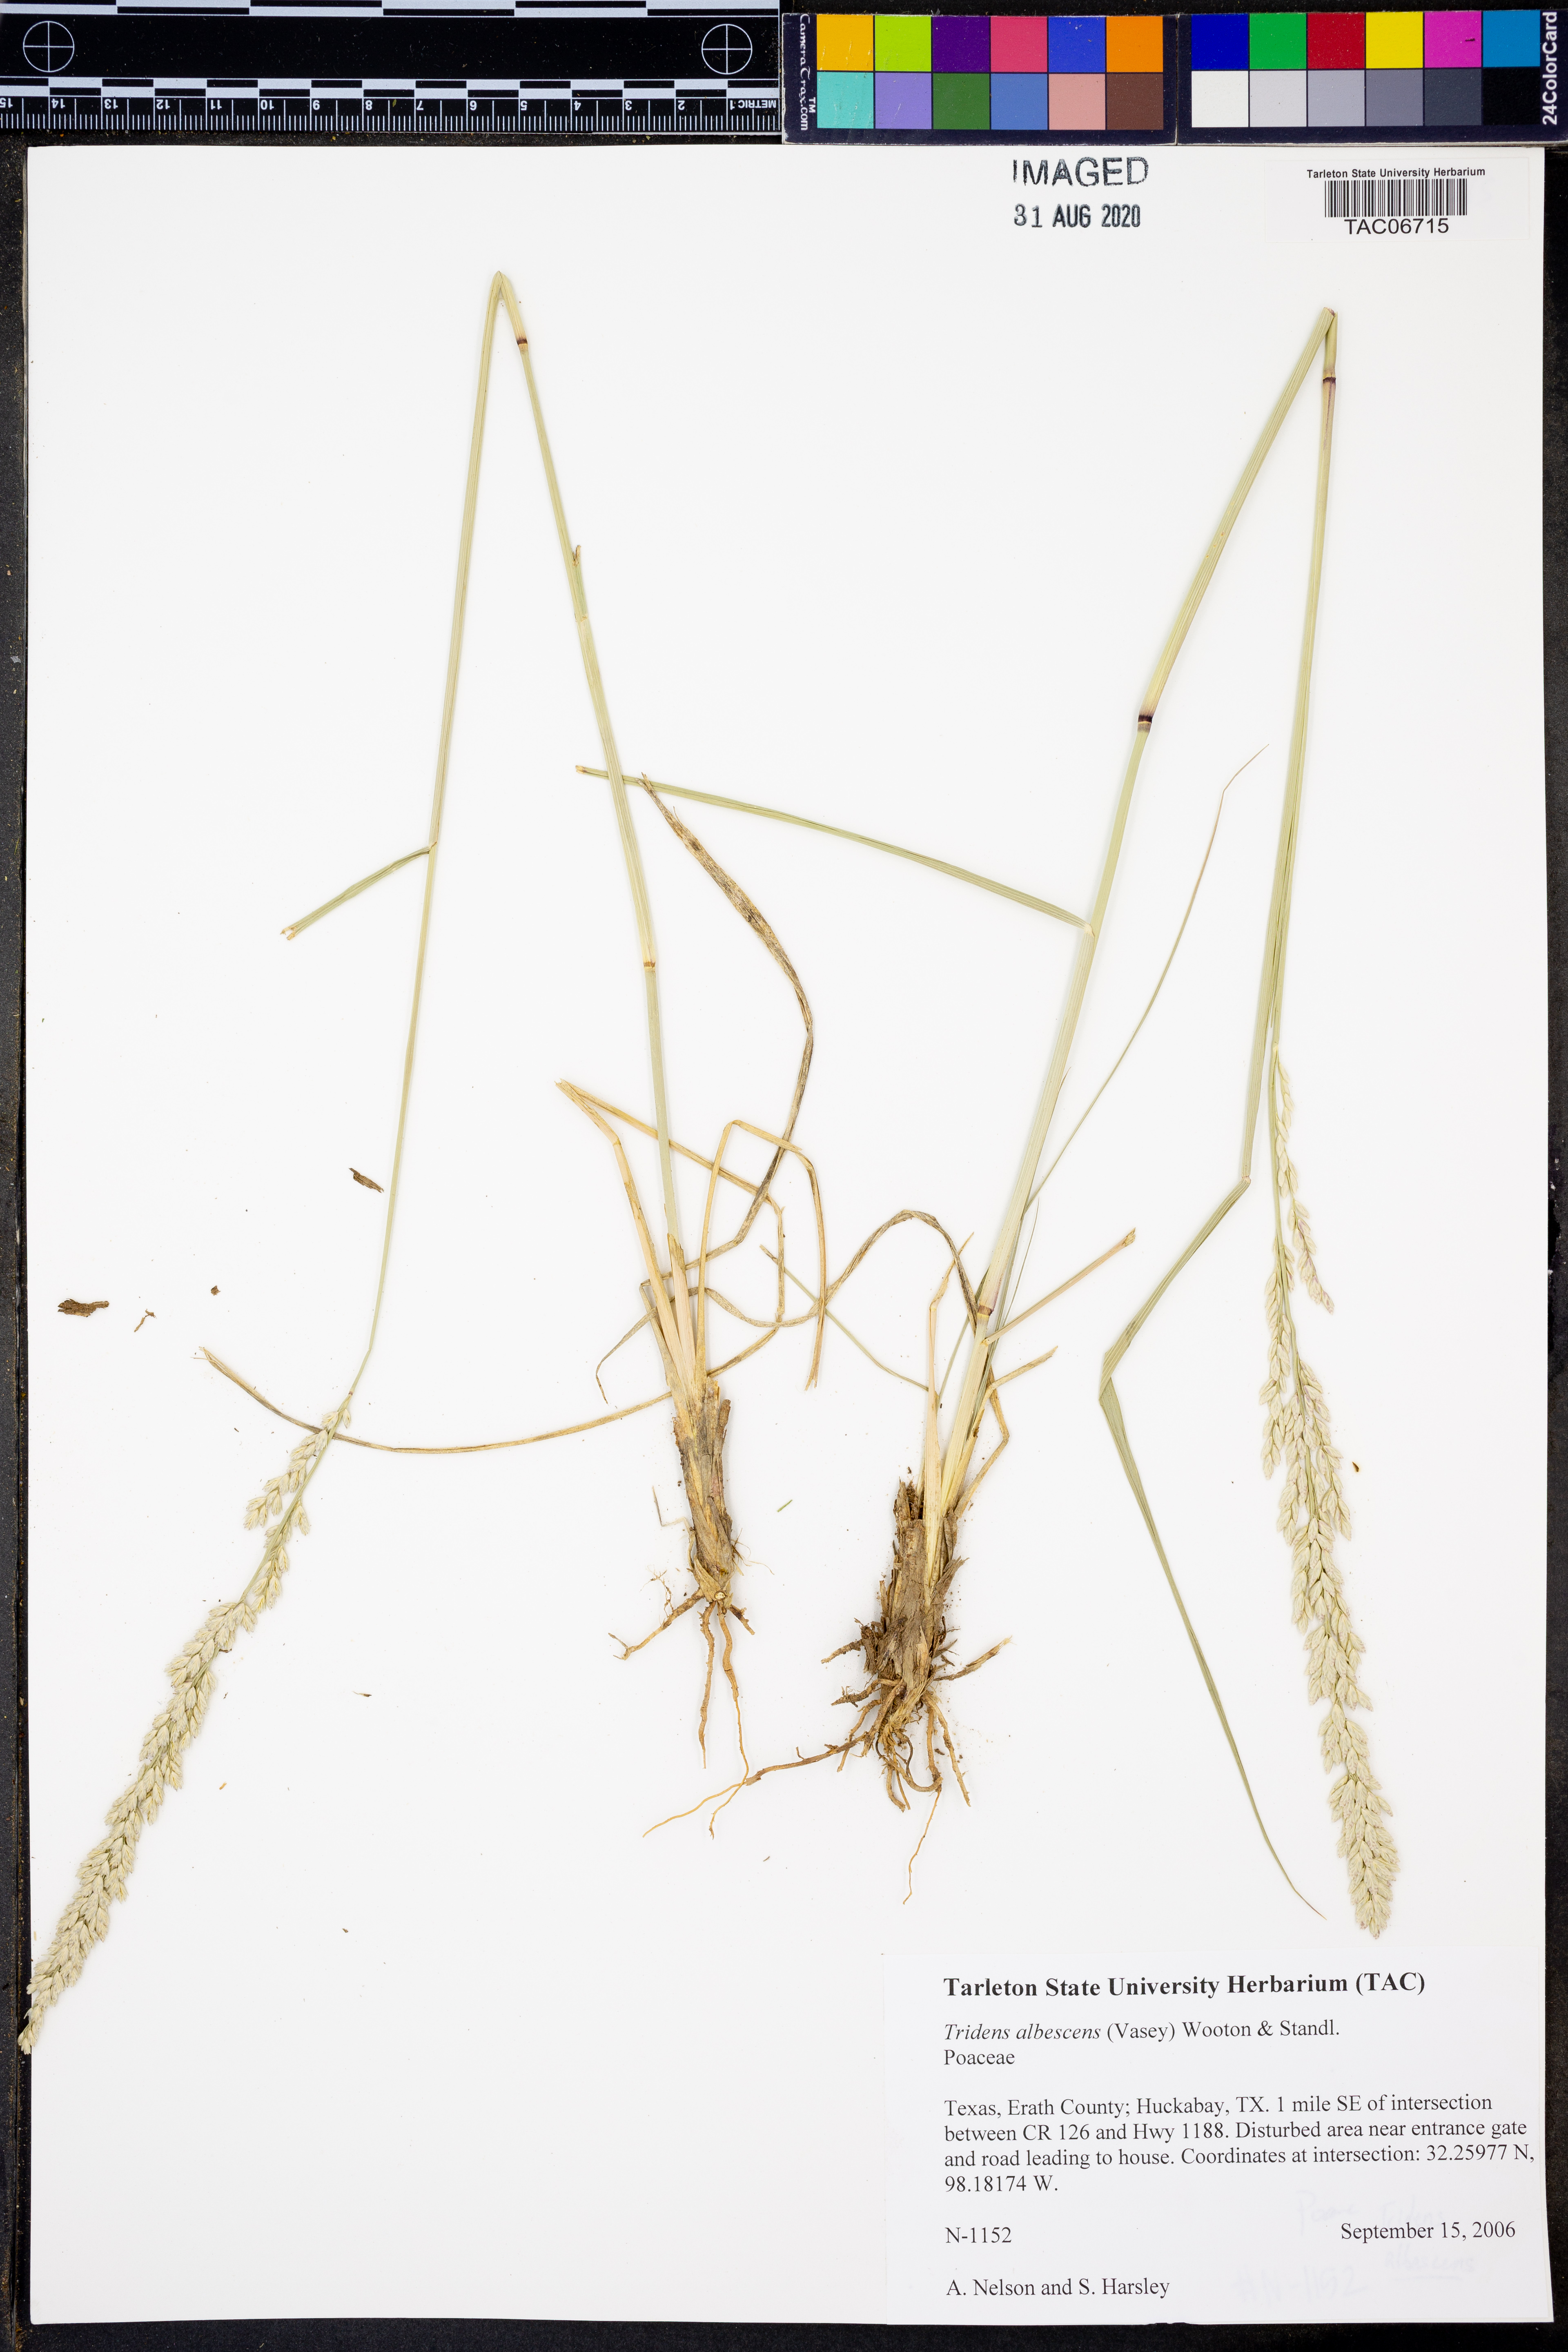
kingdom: Plantae
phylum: Tracheophyta
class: Liliopsida
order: Poales
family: Poaceae
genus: Tridens
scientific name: Tridens albescens
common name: White tridens
